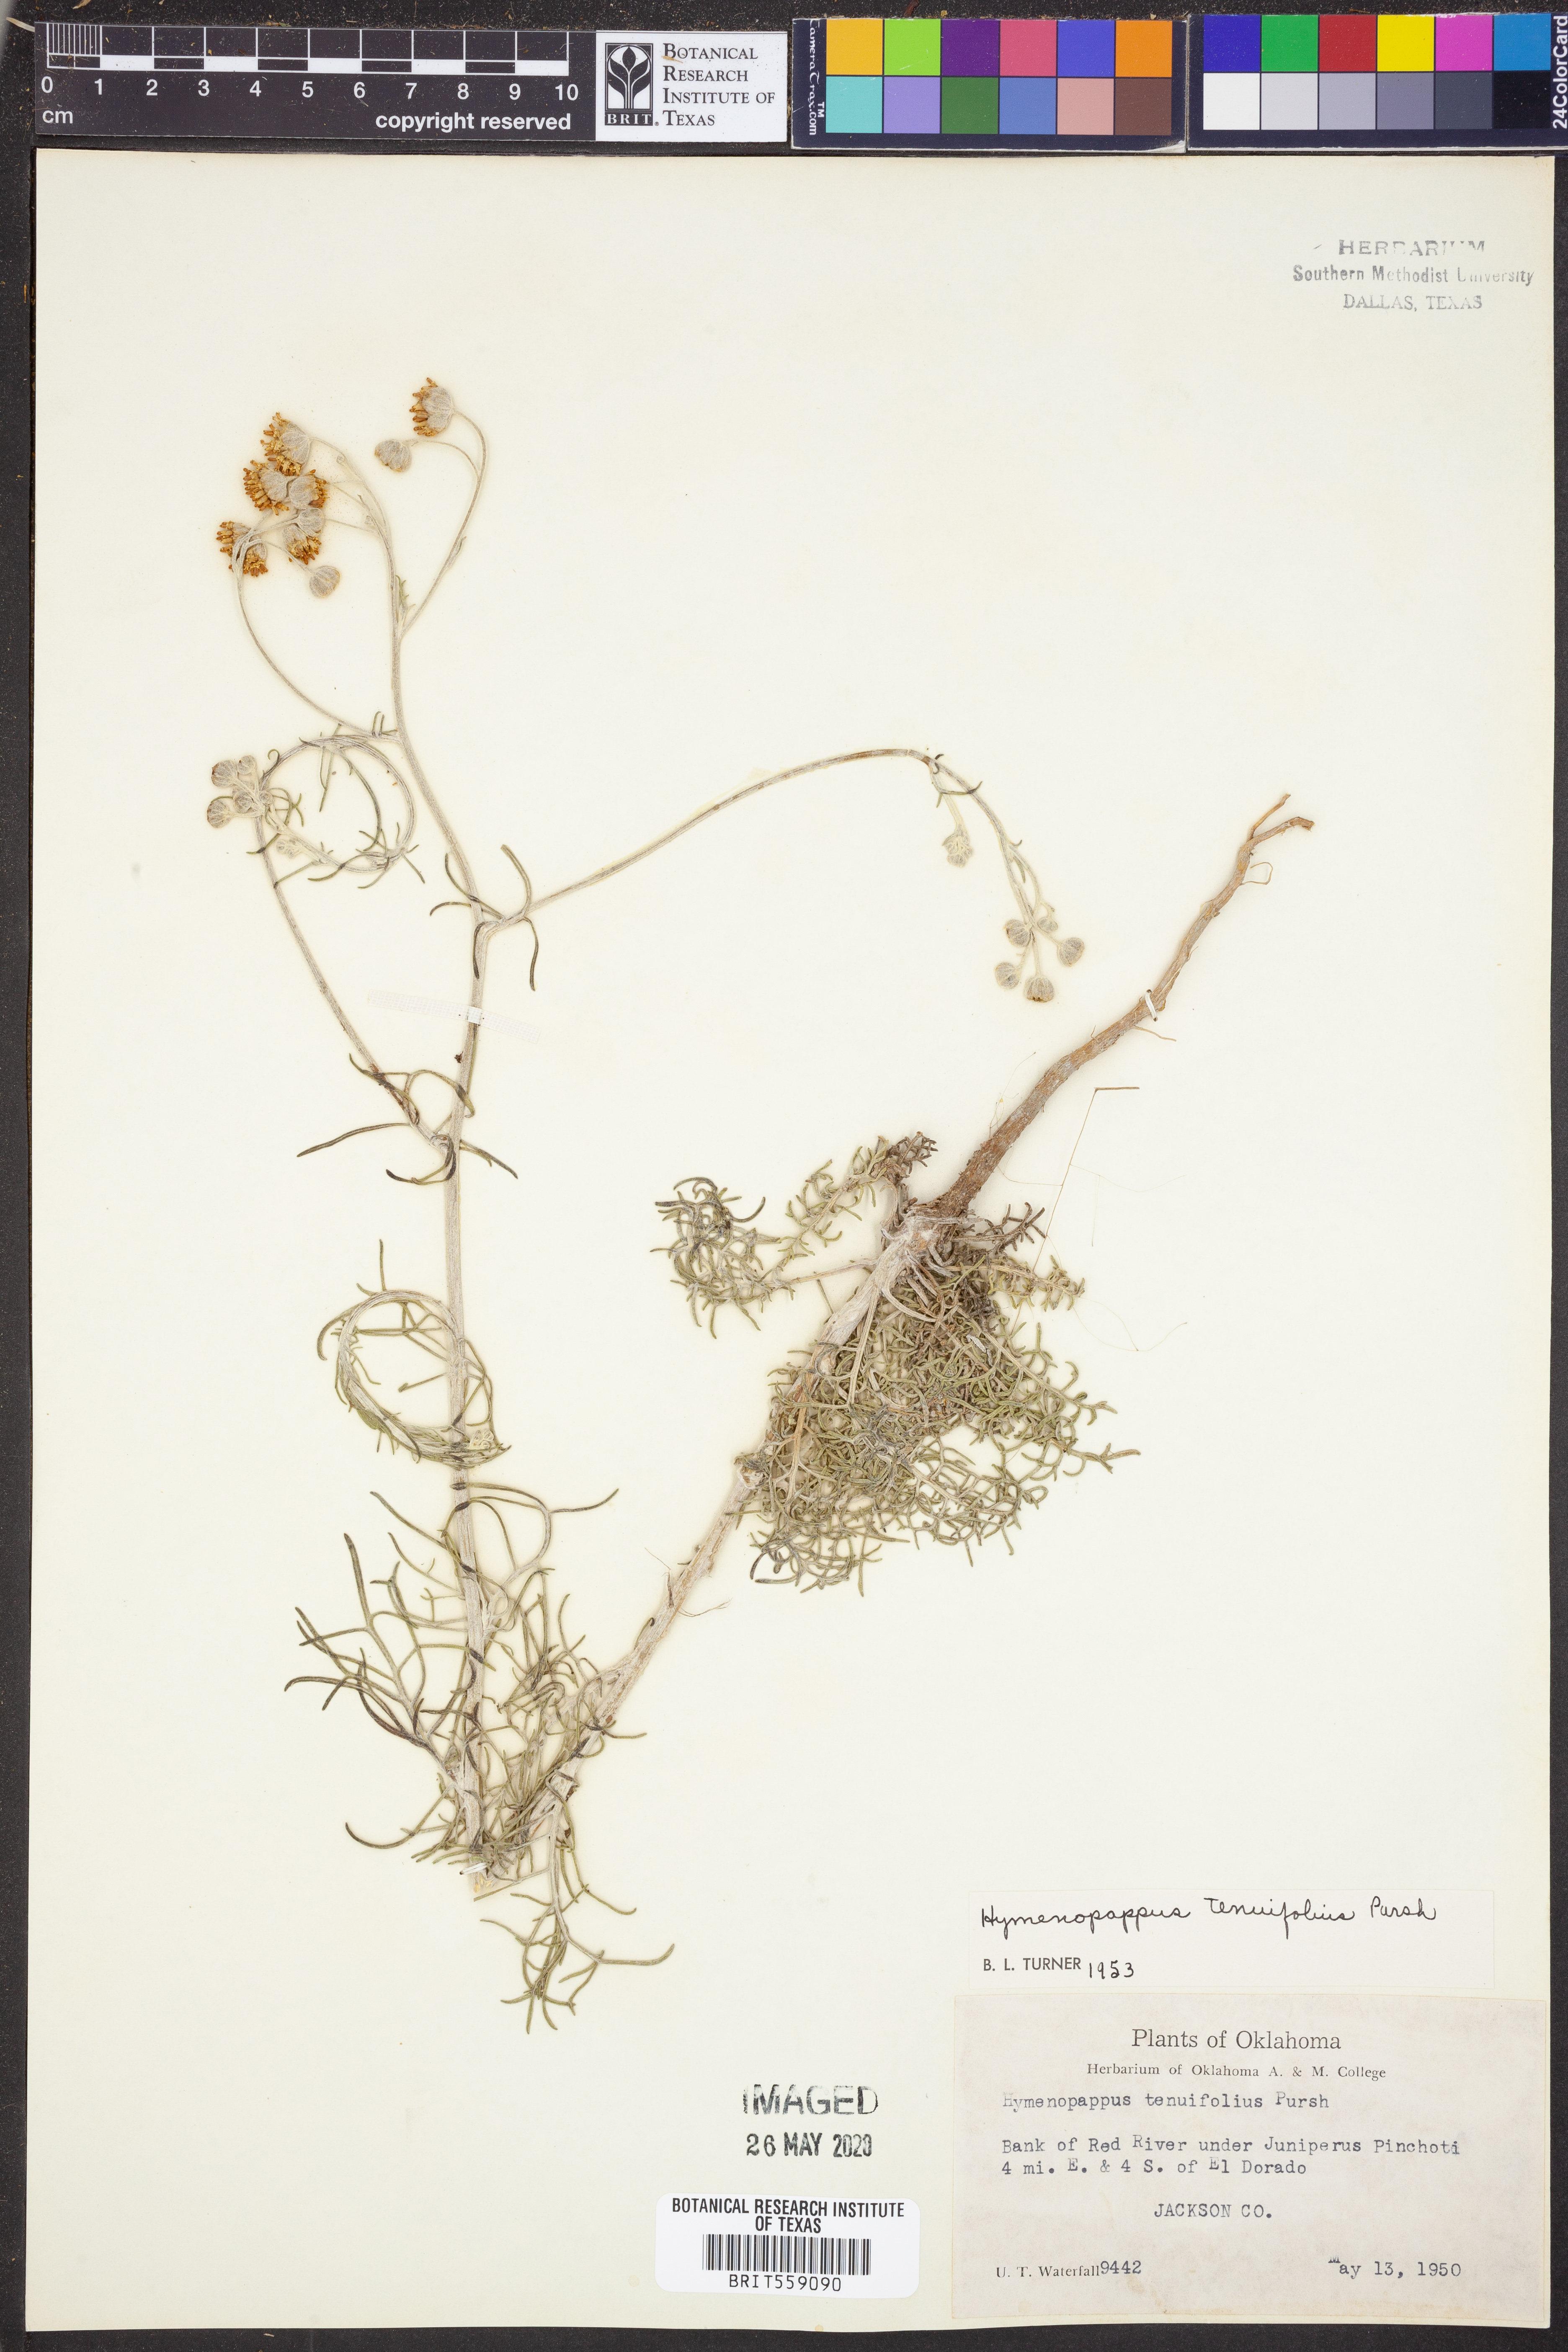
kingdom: Plantae
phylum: Tracheophyta
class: Magnoliopsida
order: Asterales
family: Asteraceae
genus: Hymenopappus
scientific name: Hymenopappus tenuifolius
